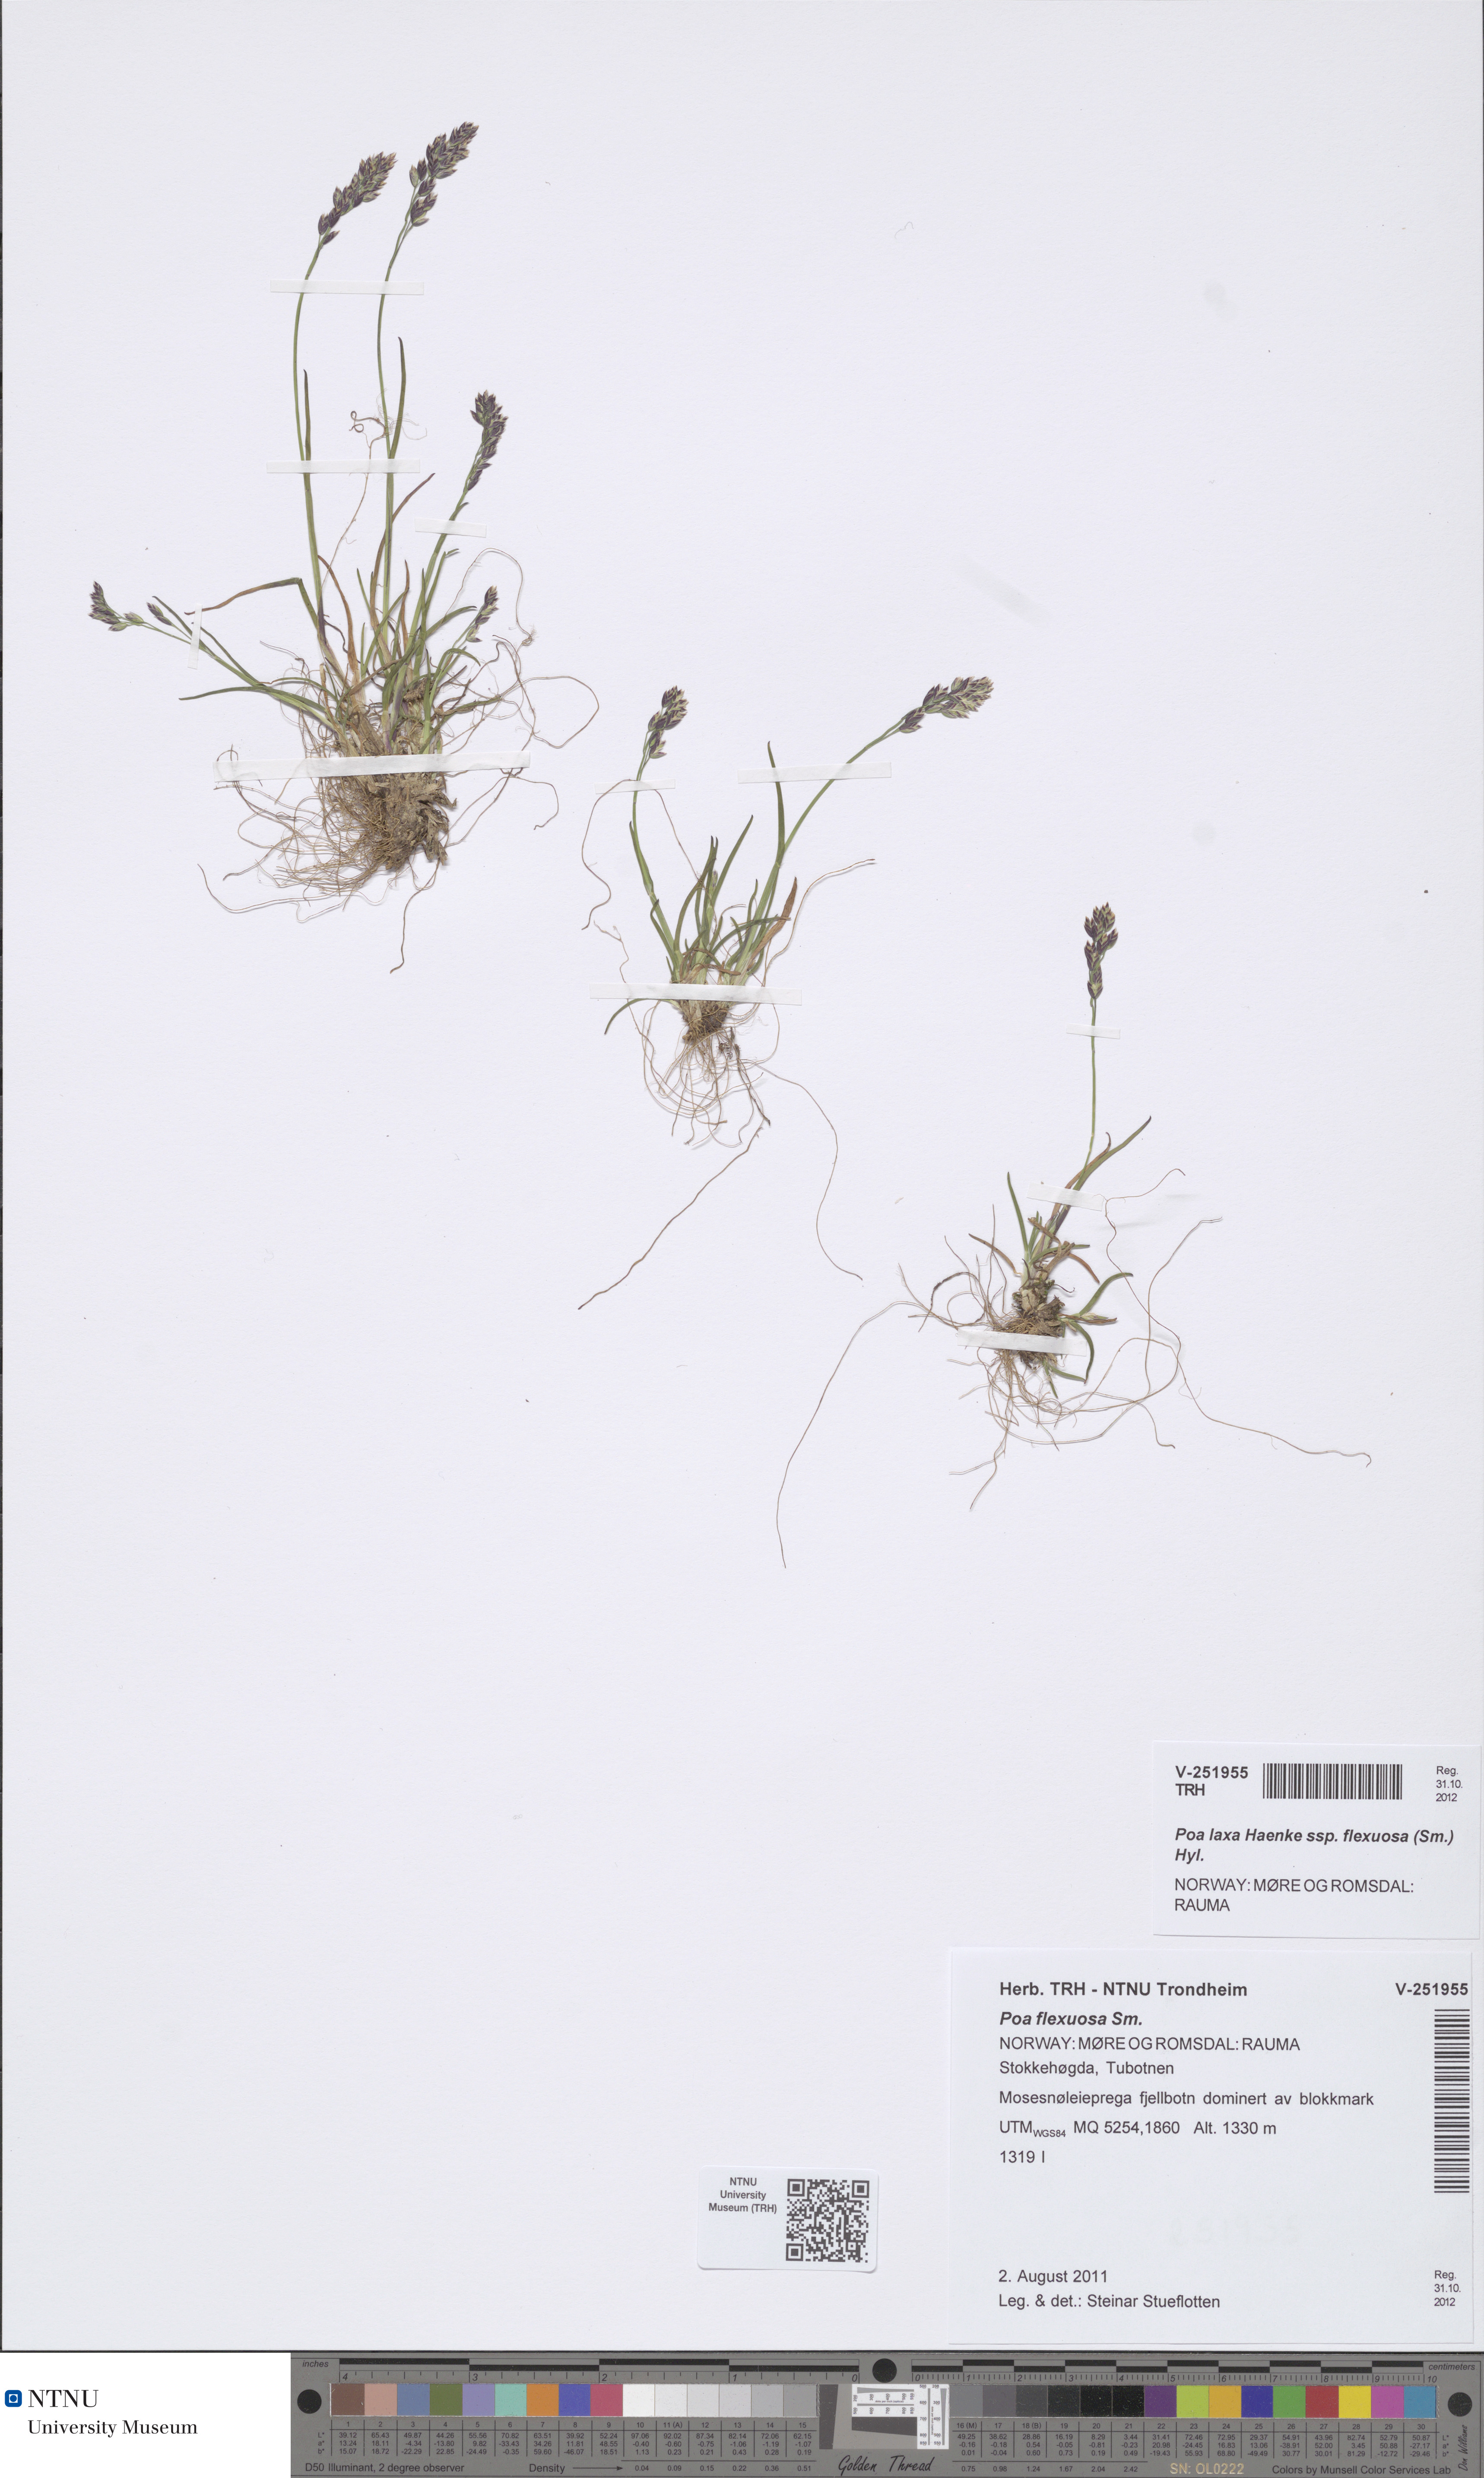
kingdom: Plantae
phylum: Tracheophyta
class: Liliopsida
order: Poales
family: Poaceae
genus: Poa
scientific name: Poa flexuosa
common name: Wavy meadow-grass
